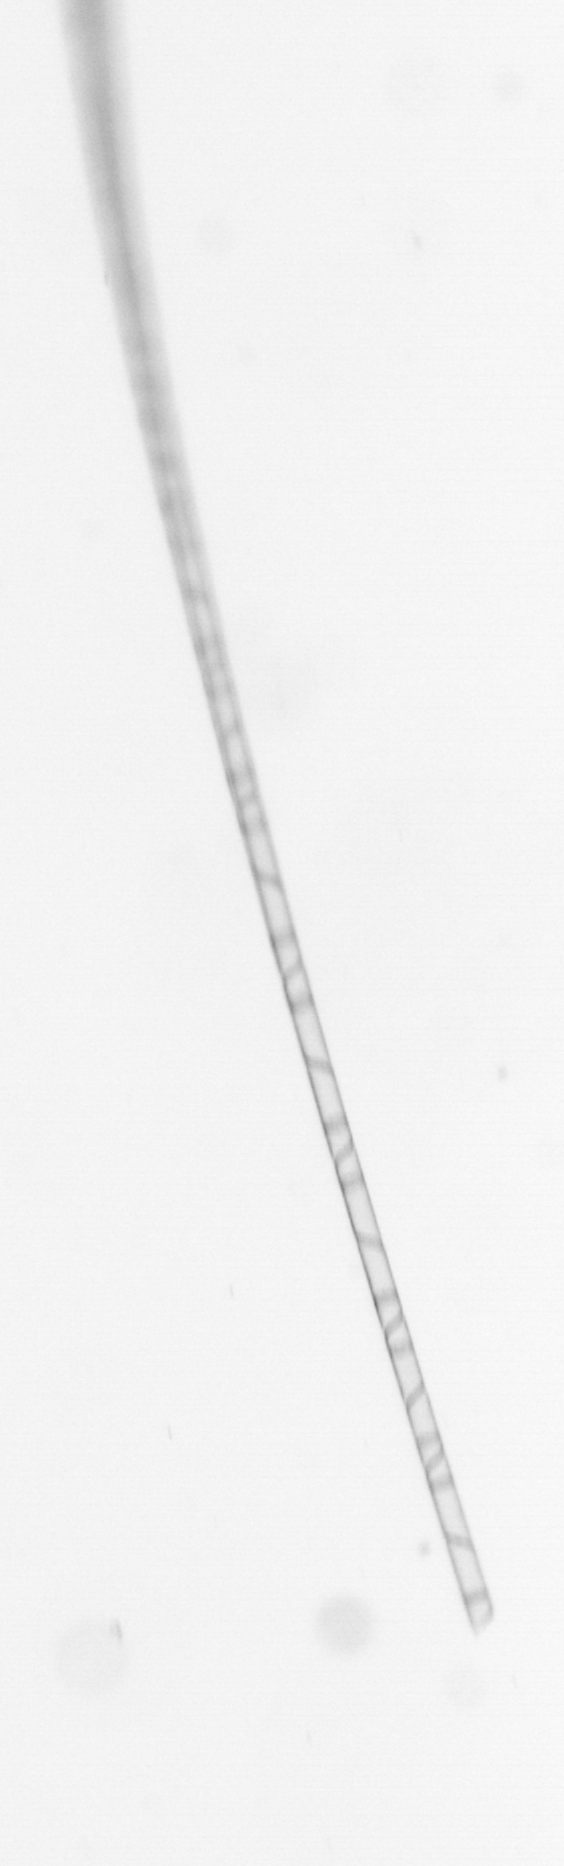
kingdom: Chromista
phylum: Ochrophyta
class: Bacillariophyceae
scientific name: Bacillariophyceae
